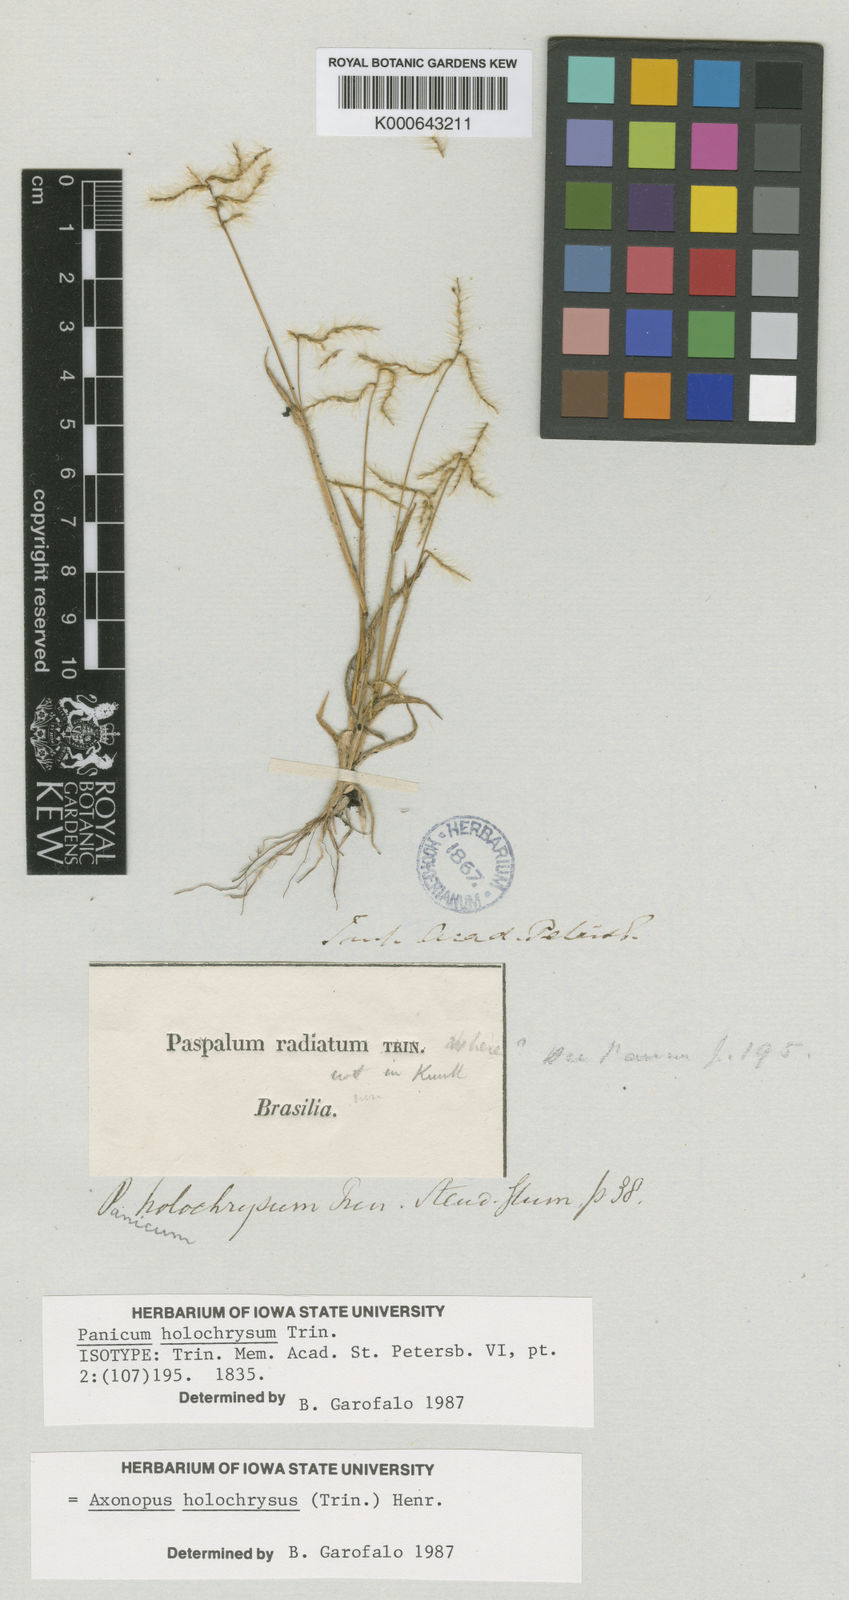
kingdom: Plantae
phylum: Tracheophyta
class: Liliopsida
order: Poales
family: Poaceae
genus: Axonopus
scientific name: Axonopus aureus
